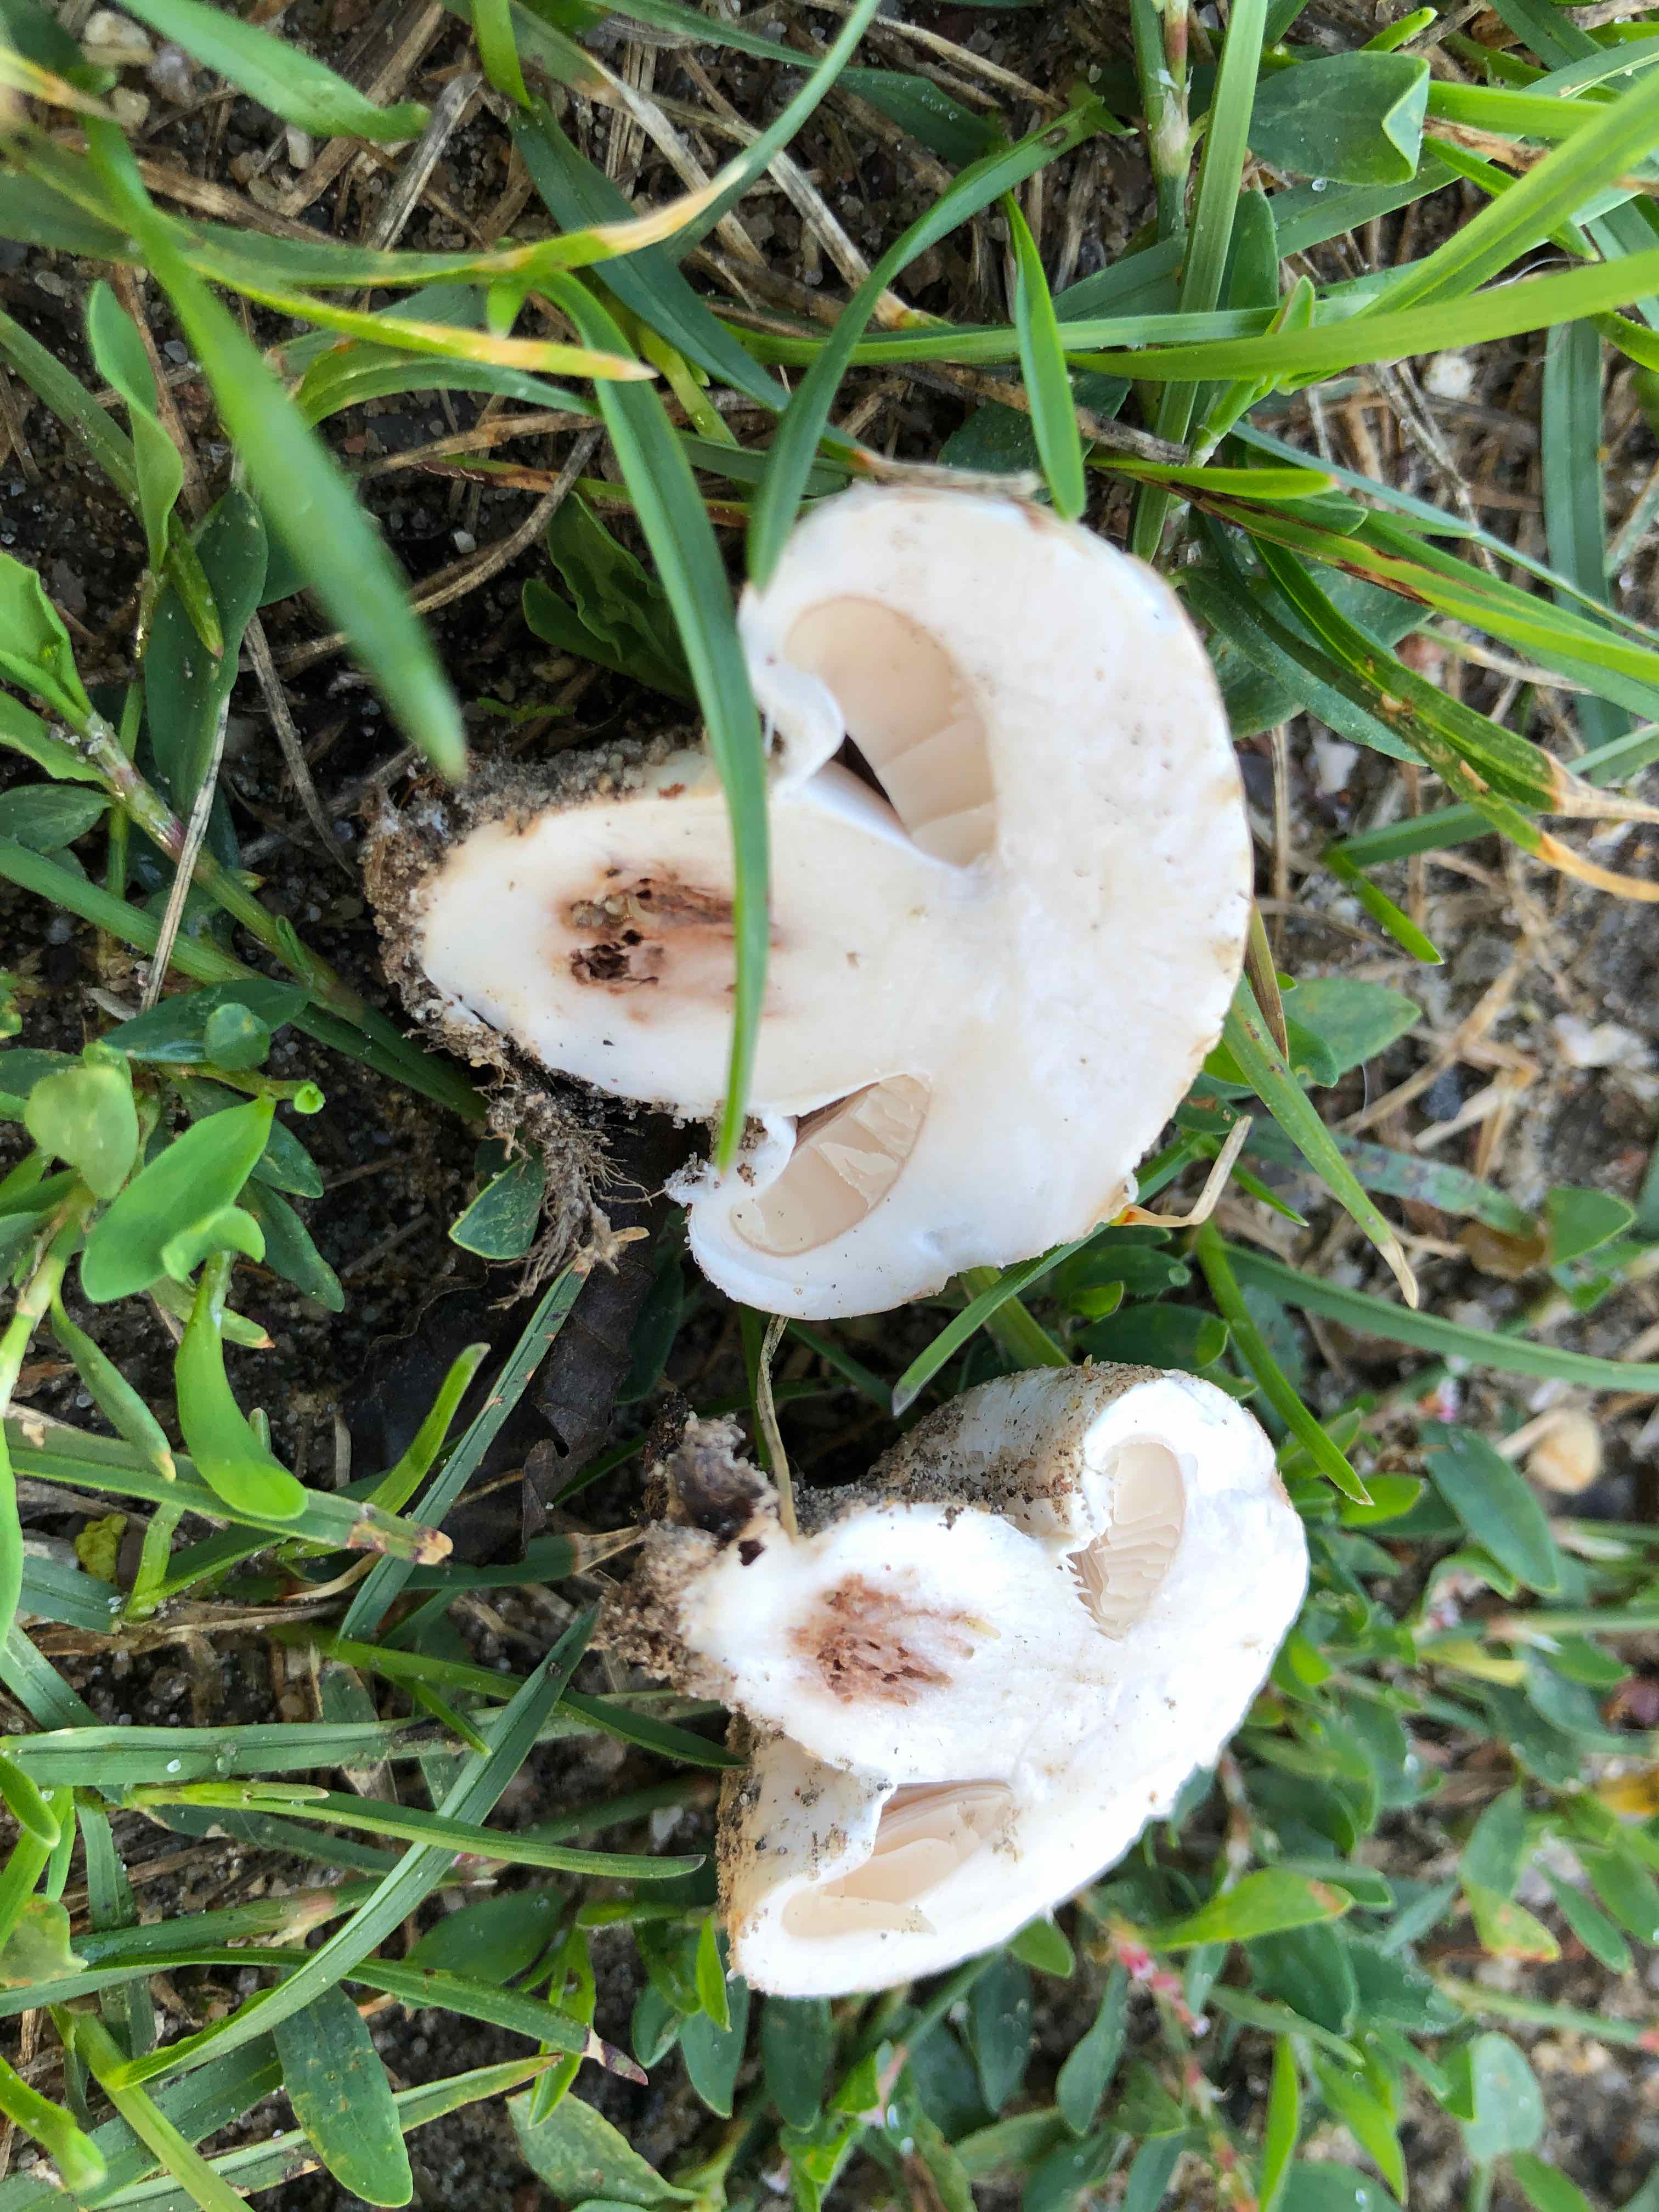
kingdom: Fungi
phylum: Basidiomycota
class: Agaricomycetes
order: Agaricales
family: Agaricaceae
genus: Agaricus
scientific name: Agaricus
